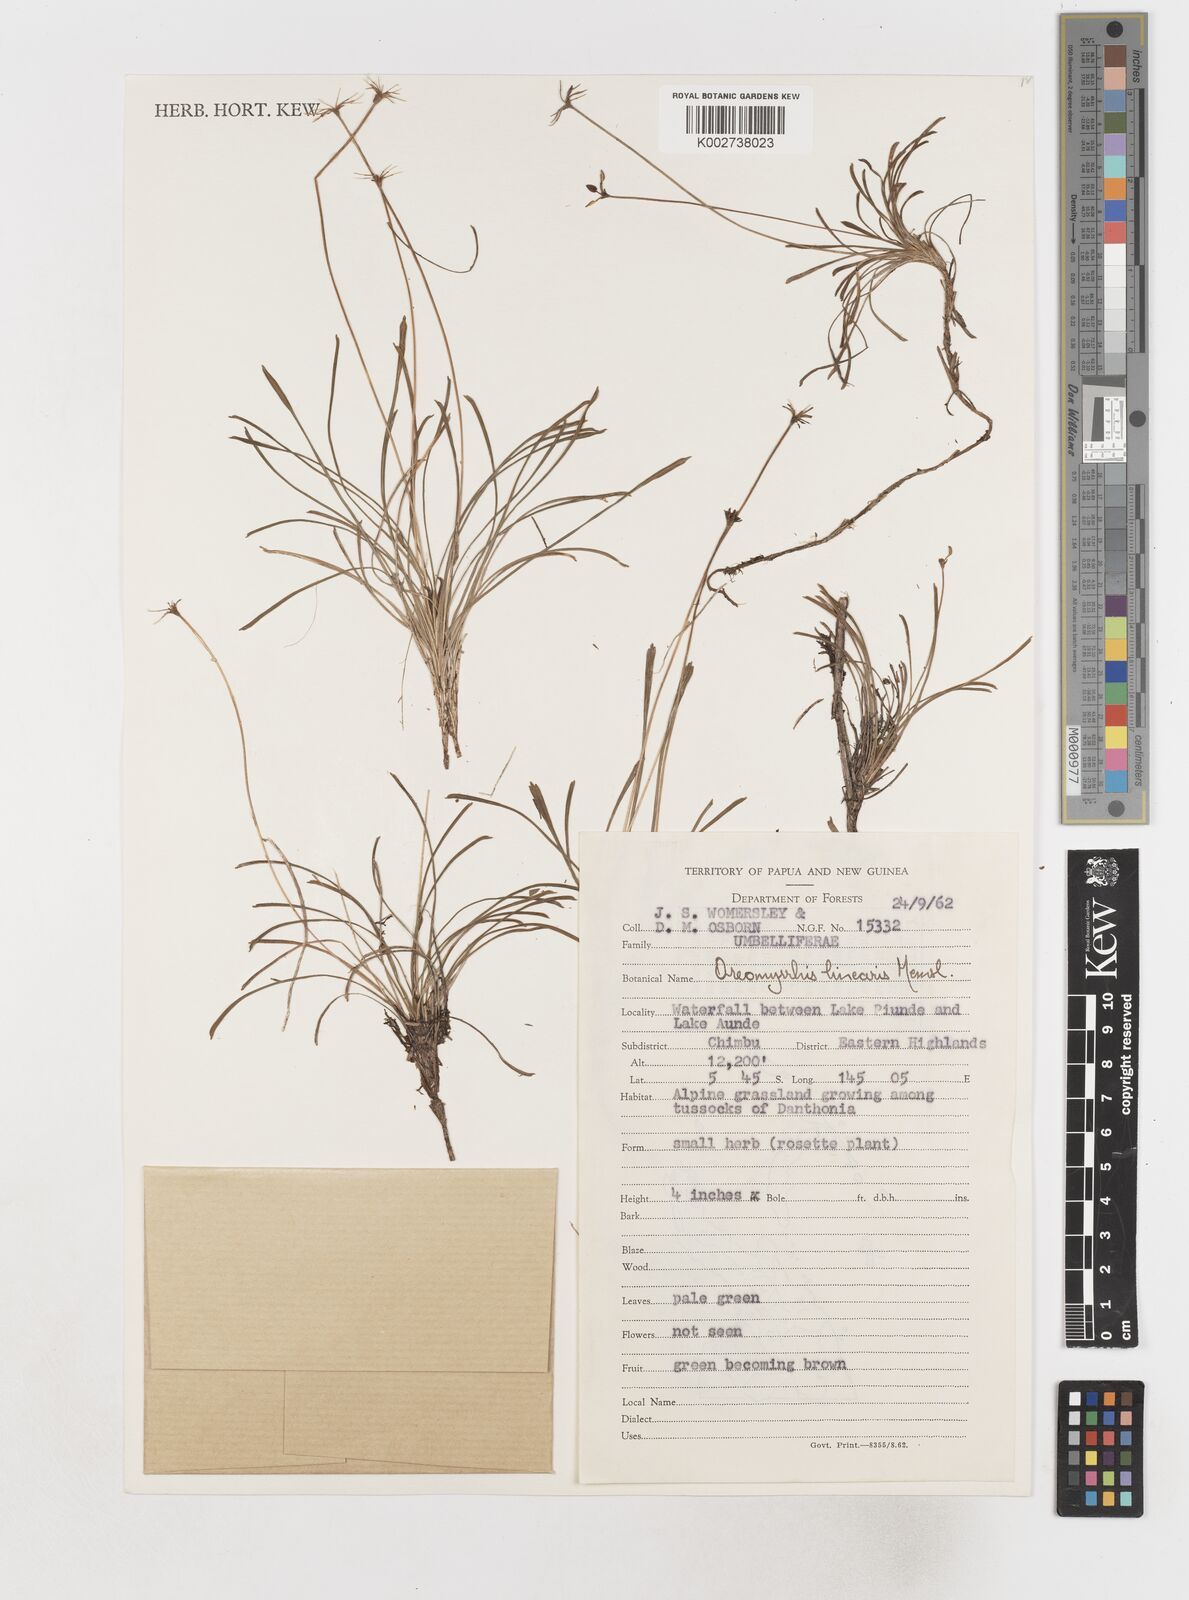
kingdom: Plantae
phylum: Tracheophyta
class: Magnoliopsida
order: Apiales
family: Apiaceae
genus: Chaerophyllum
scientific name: Chaerophyllum lineare
